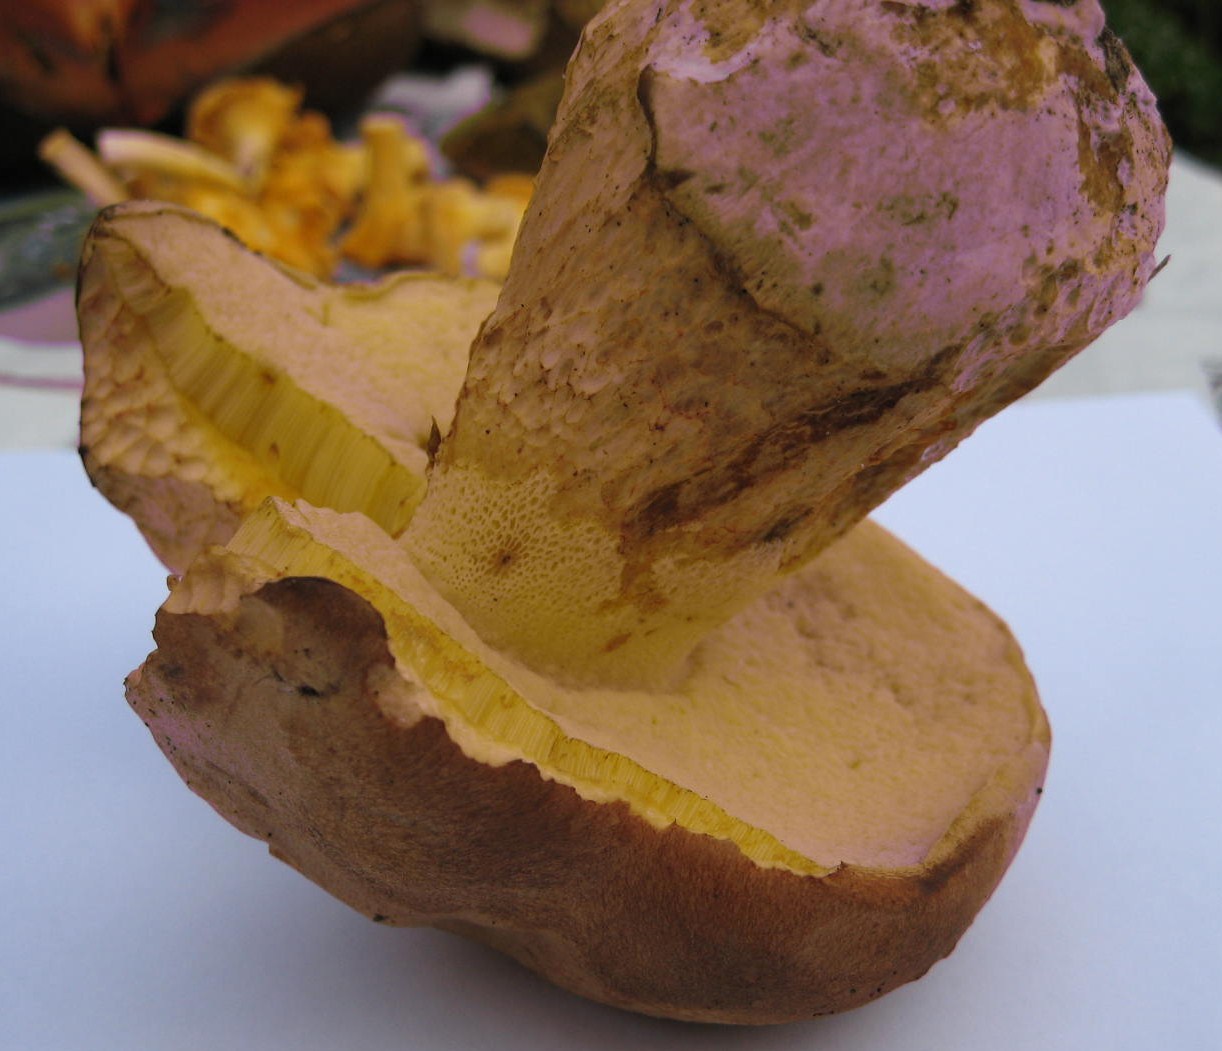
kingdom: Fungi
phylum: Basidiomycota
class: Agaricomycetes
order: Boletales
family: Boletaceae
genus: Caloboletus
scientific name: Caloboletus radicans
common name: rod-rørhat
